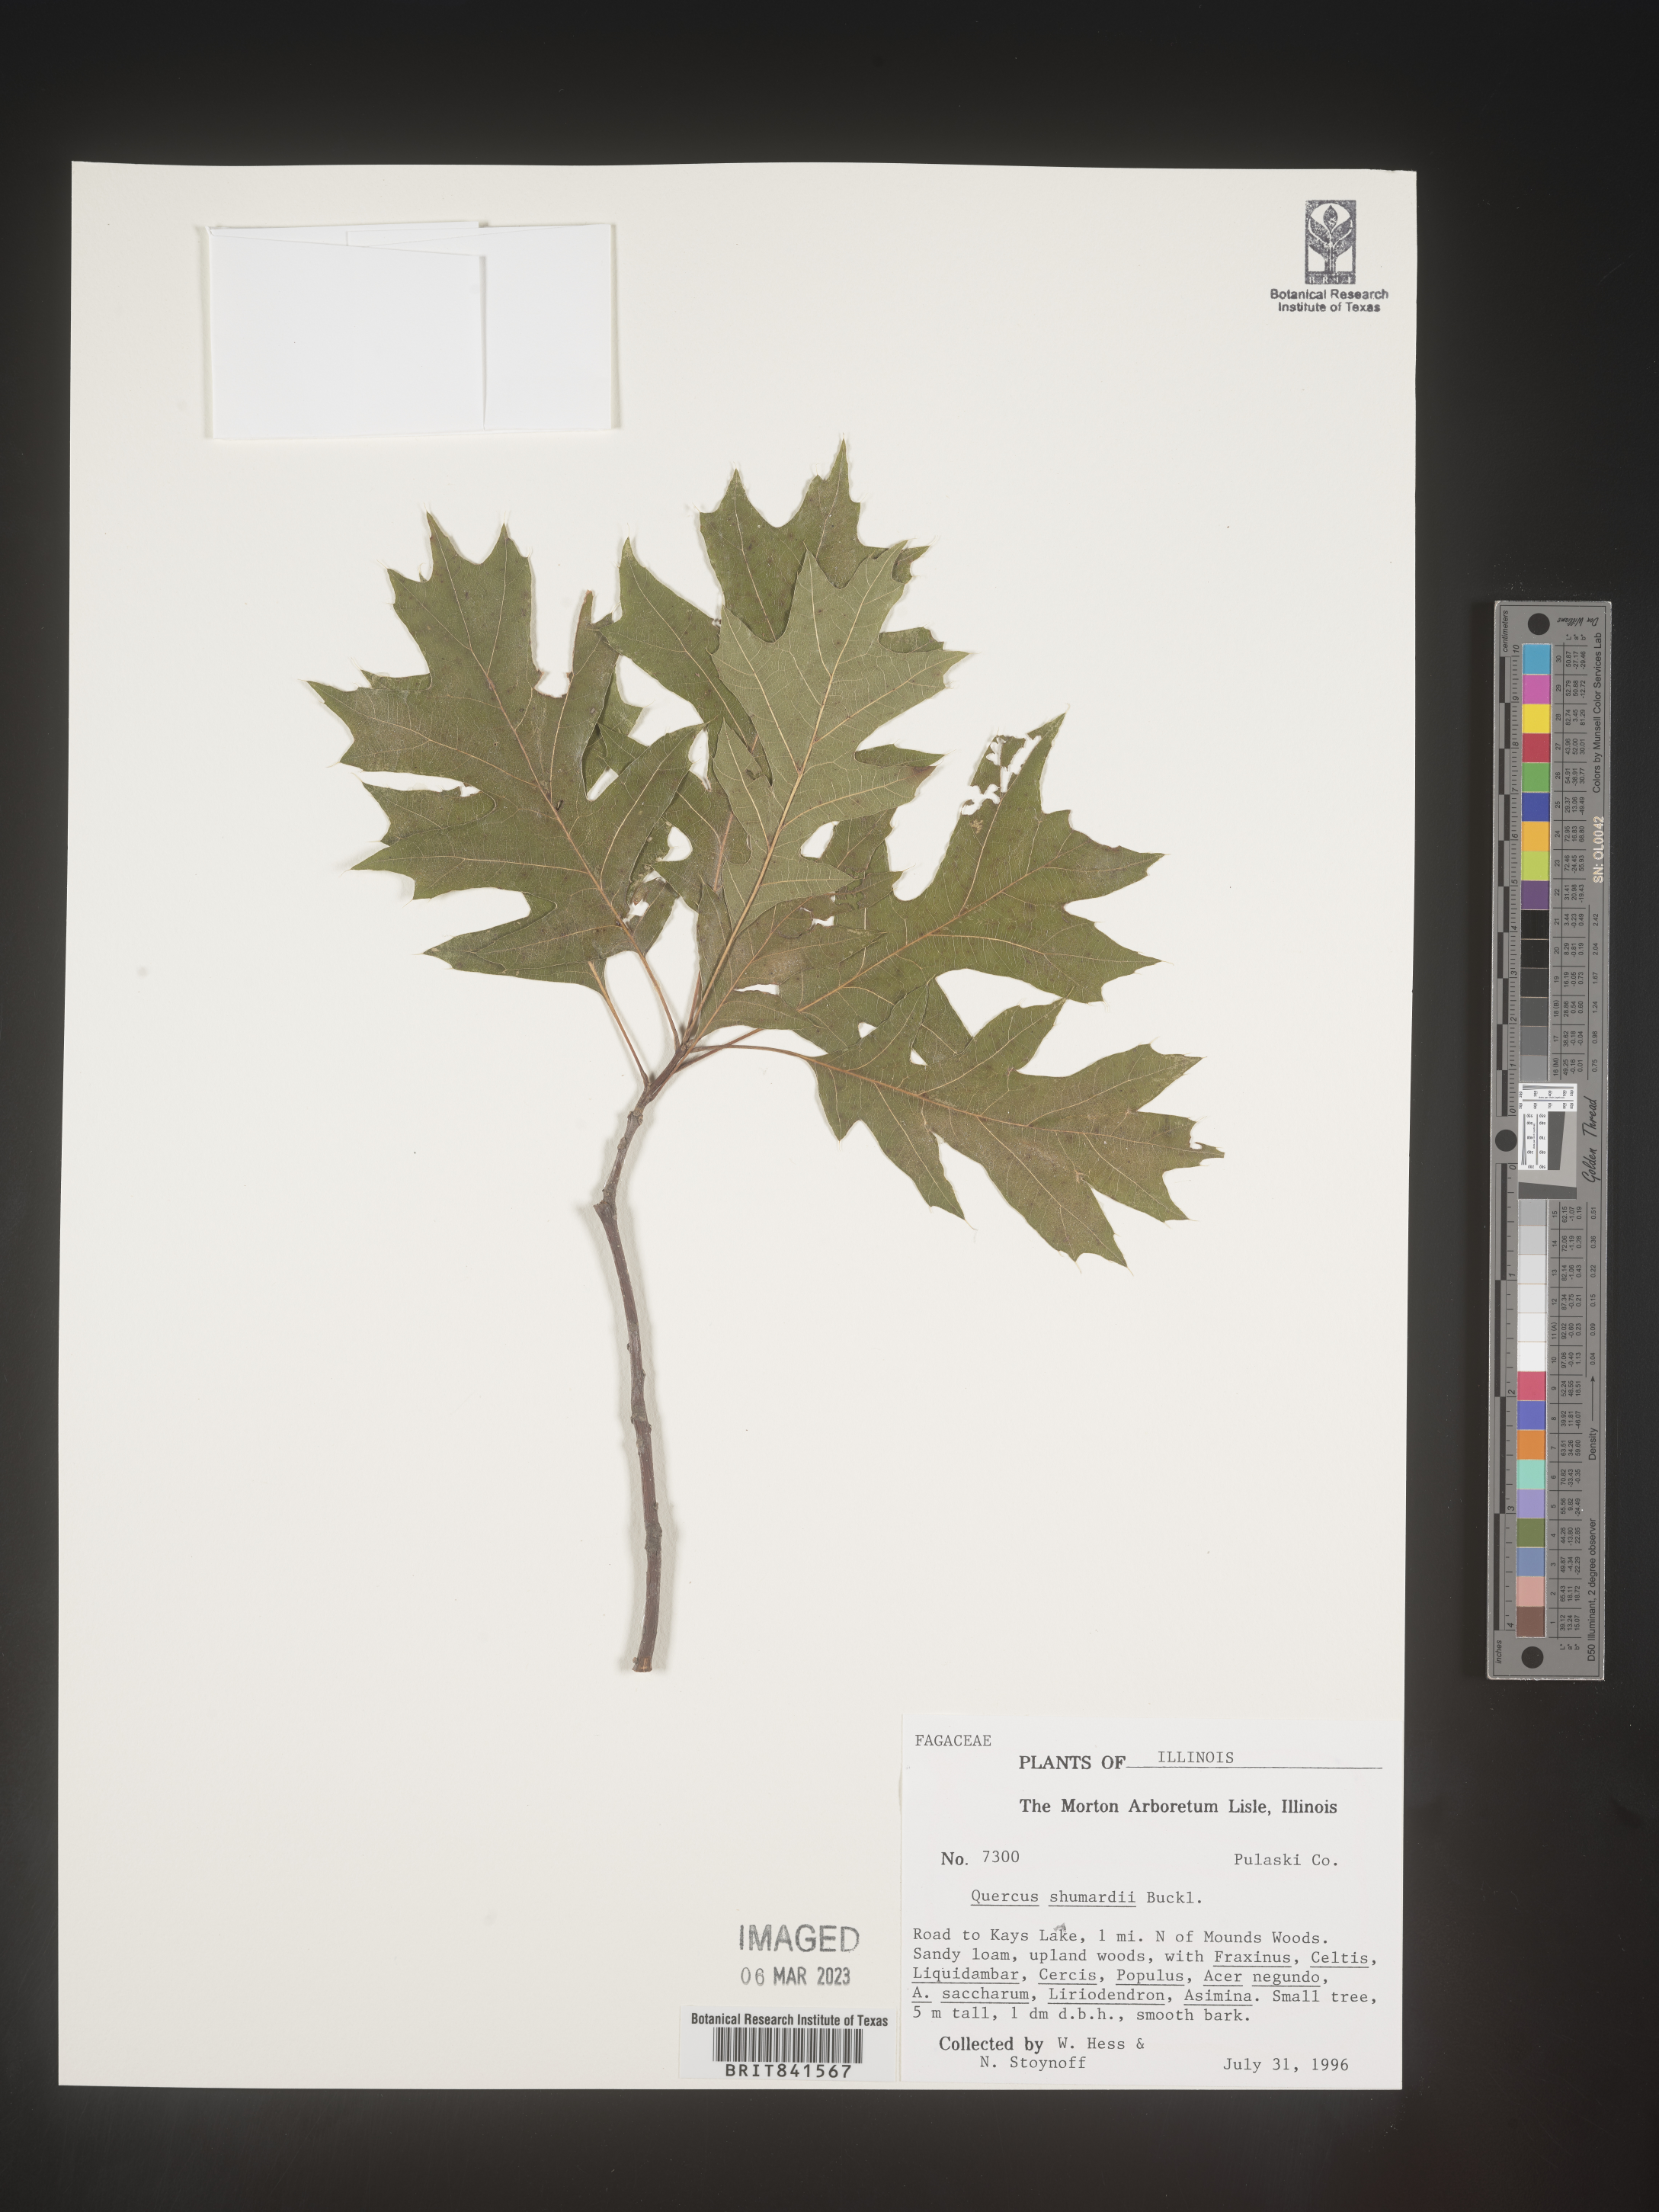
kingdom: Plantae
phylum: Tracheophyta
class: Magnoliopsida
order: Fagales
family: Fagaceae
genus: Quercus
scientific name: Quercus shumardii
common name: Shumard oak
